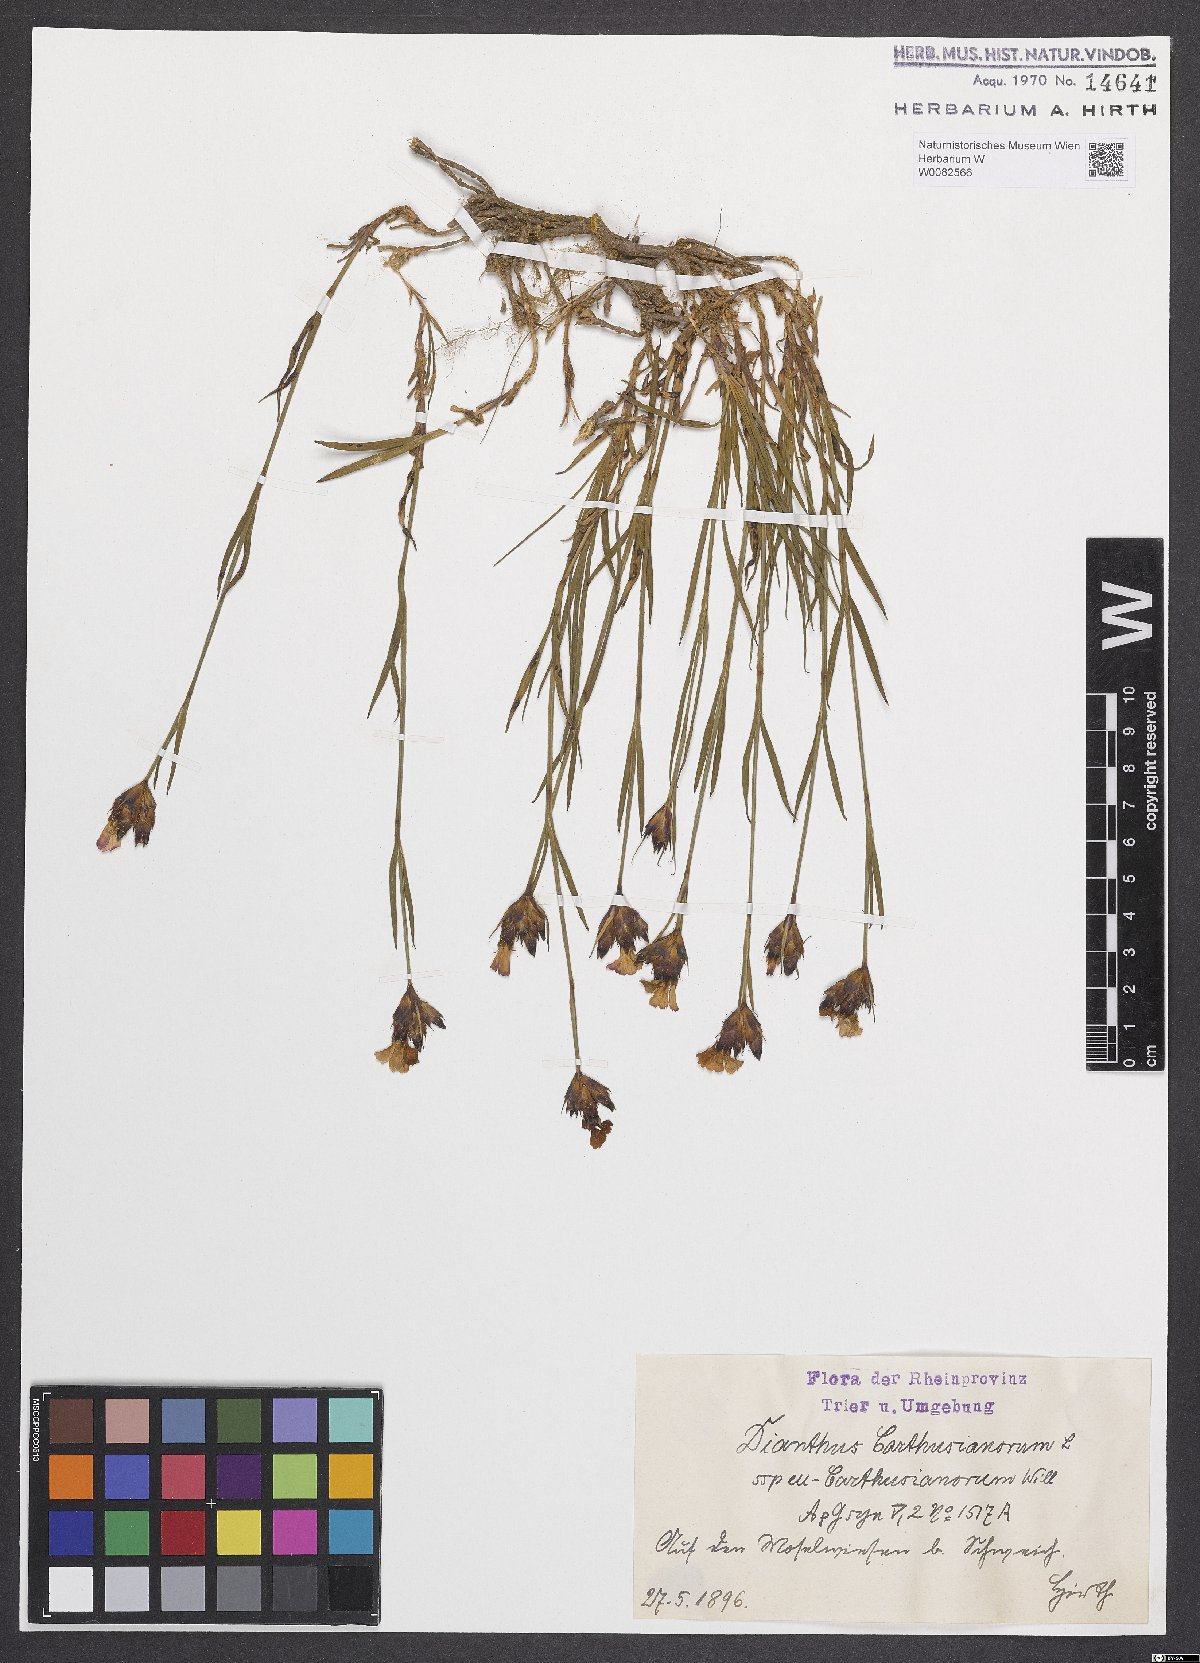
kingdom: Plantae
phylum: Tracheophyta
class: Magnoliopsida
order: Caryophyllales
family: Caryophyllaceae
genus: Dianthus
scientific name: Dianthus carthusianorum
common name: Carthusian pink
